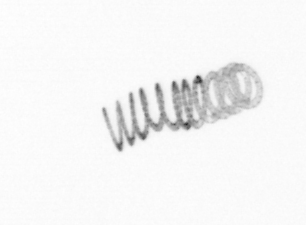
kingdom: Chromista
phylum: Ochrophyta
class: Bacillariophyceae
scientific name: Bacillariophyceae
